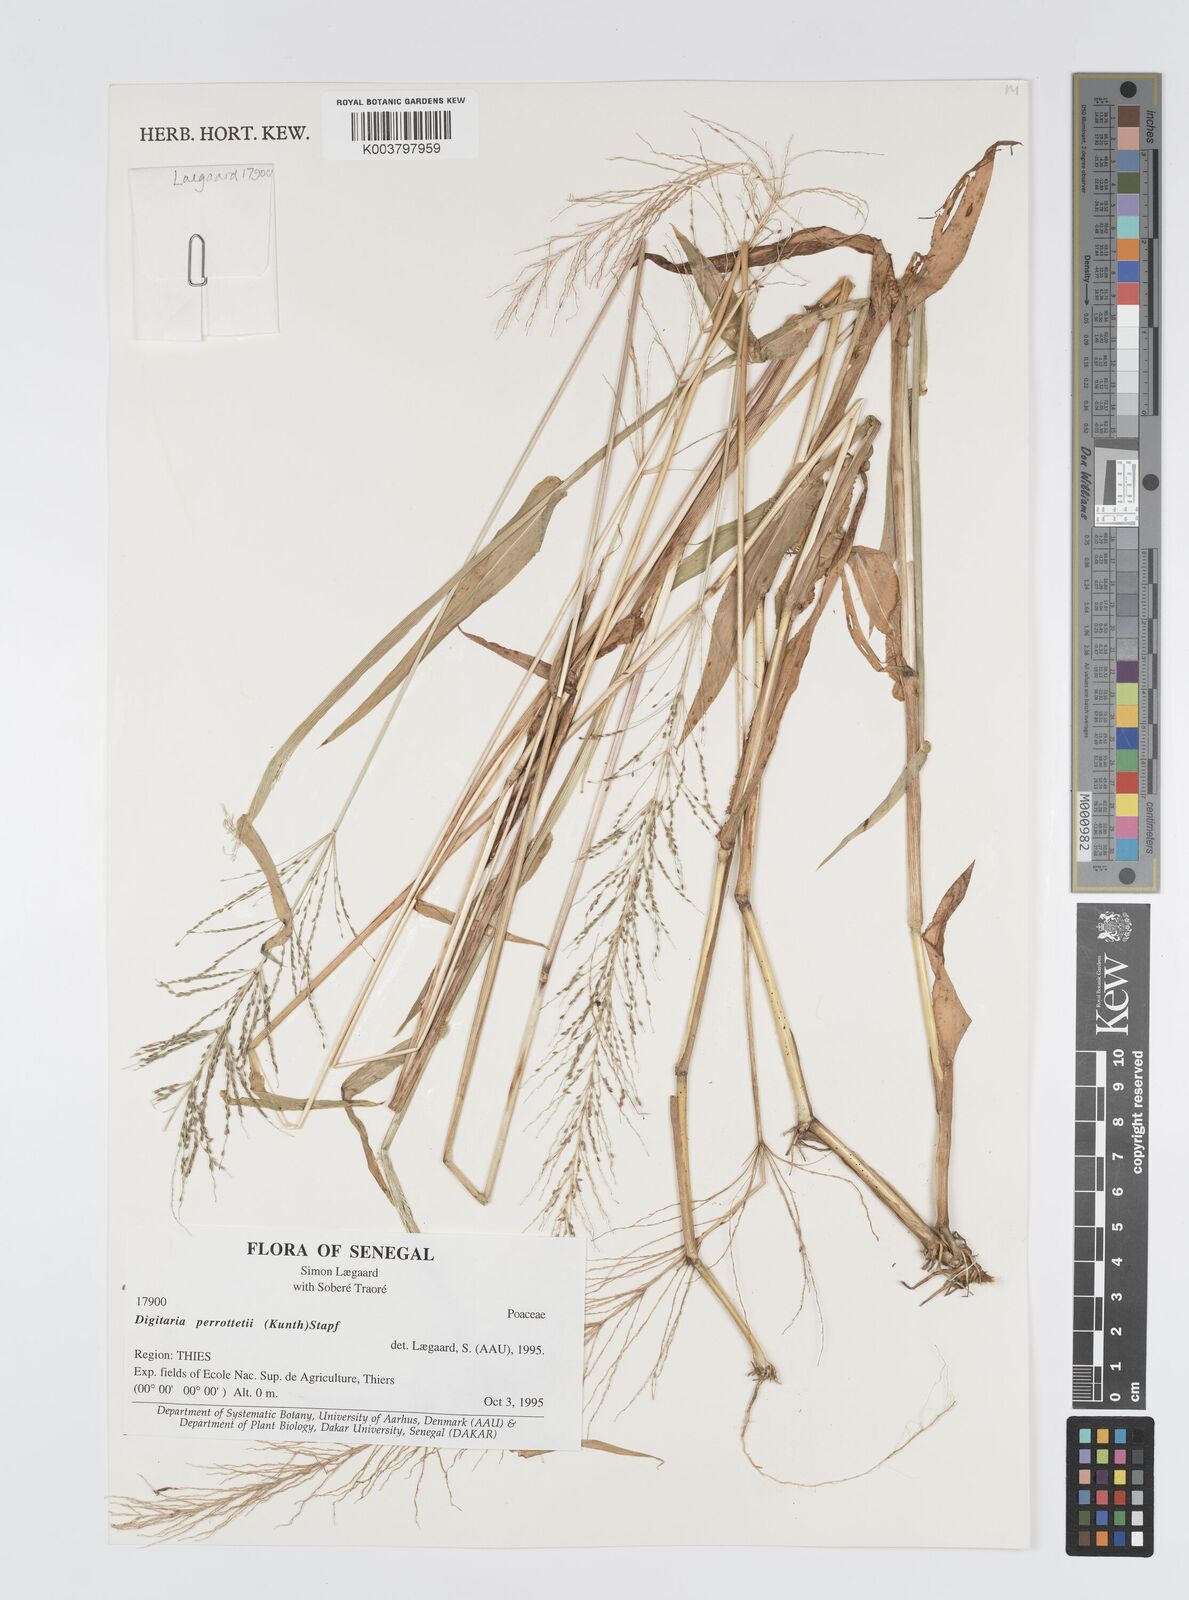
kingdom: Plantae
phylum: Tracheophyta
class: Liliopsida
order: Poales
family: Poaceae
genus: Digitaria
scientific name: Digitaria perrottetii
